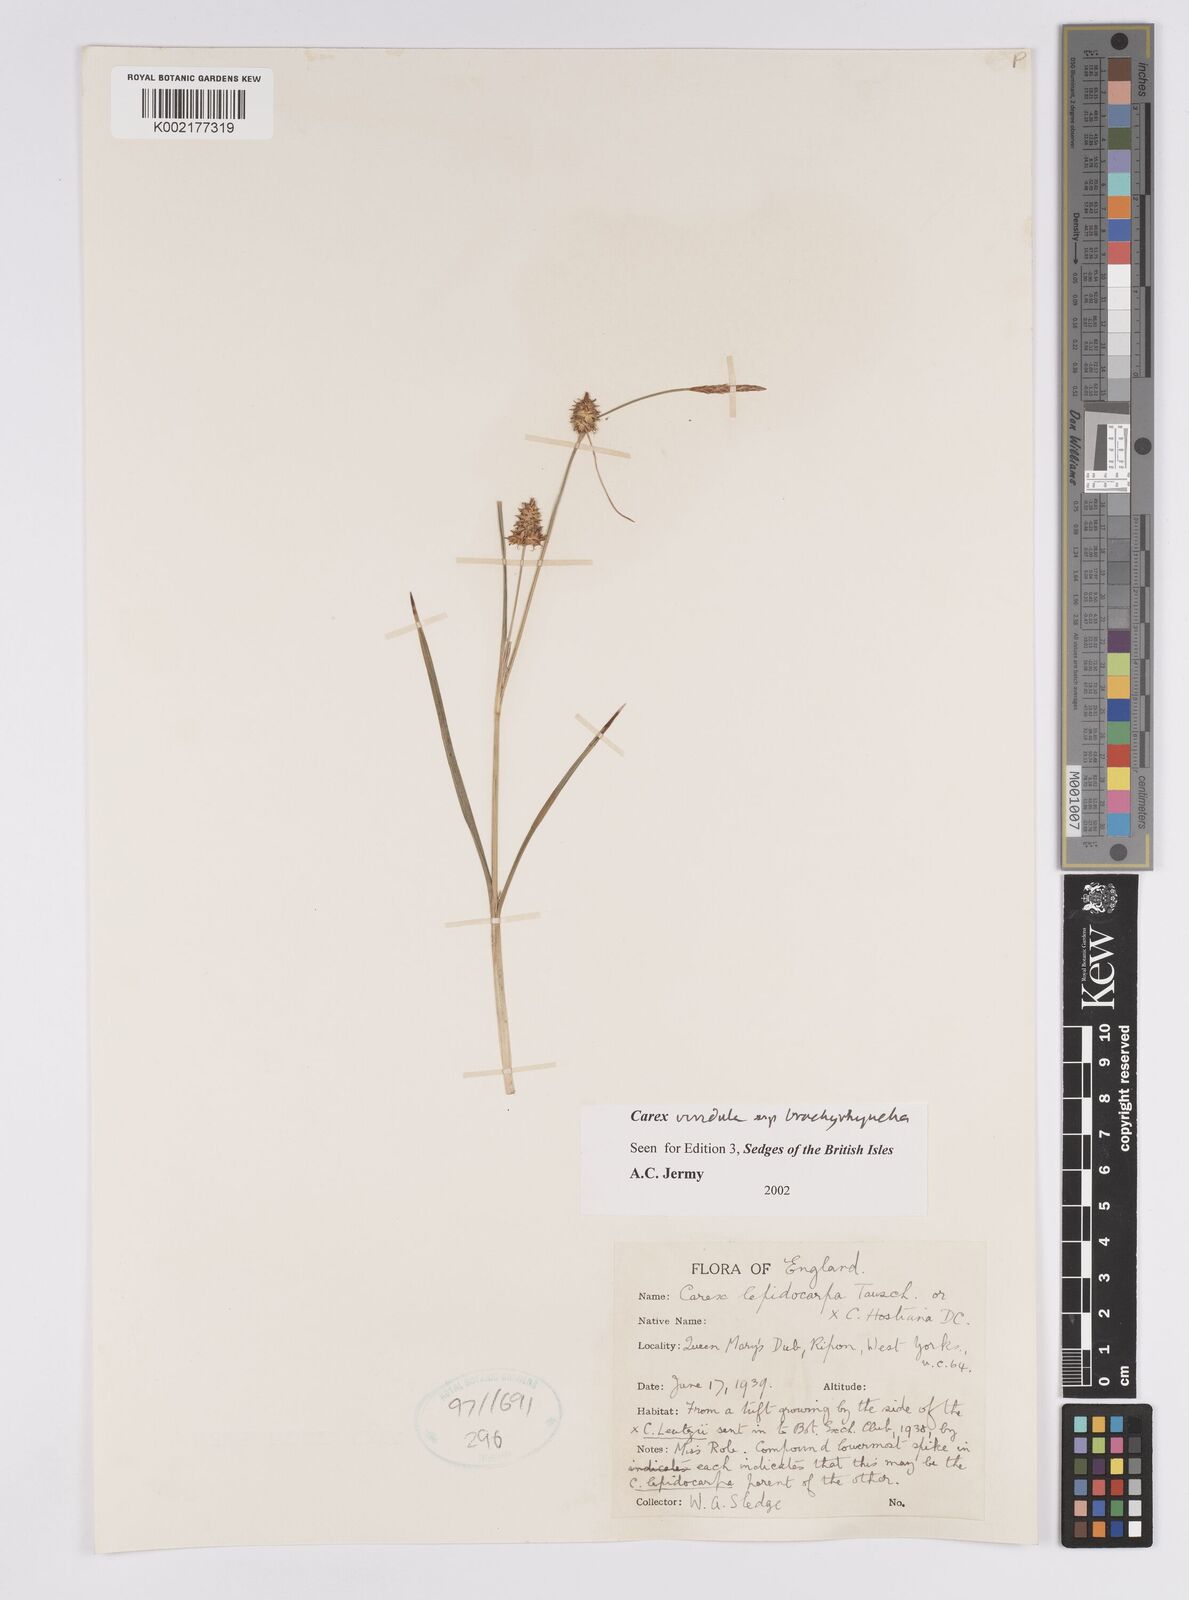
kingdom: Plantae
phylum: Tracheophyta
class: Liliopsida
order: Poales
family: Cyperaceae
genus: Carex
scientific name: Carex hostiana
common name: Tawny sedge
